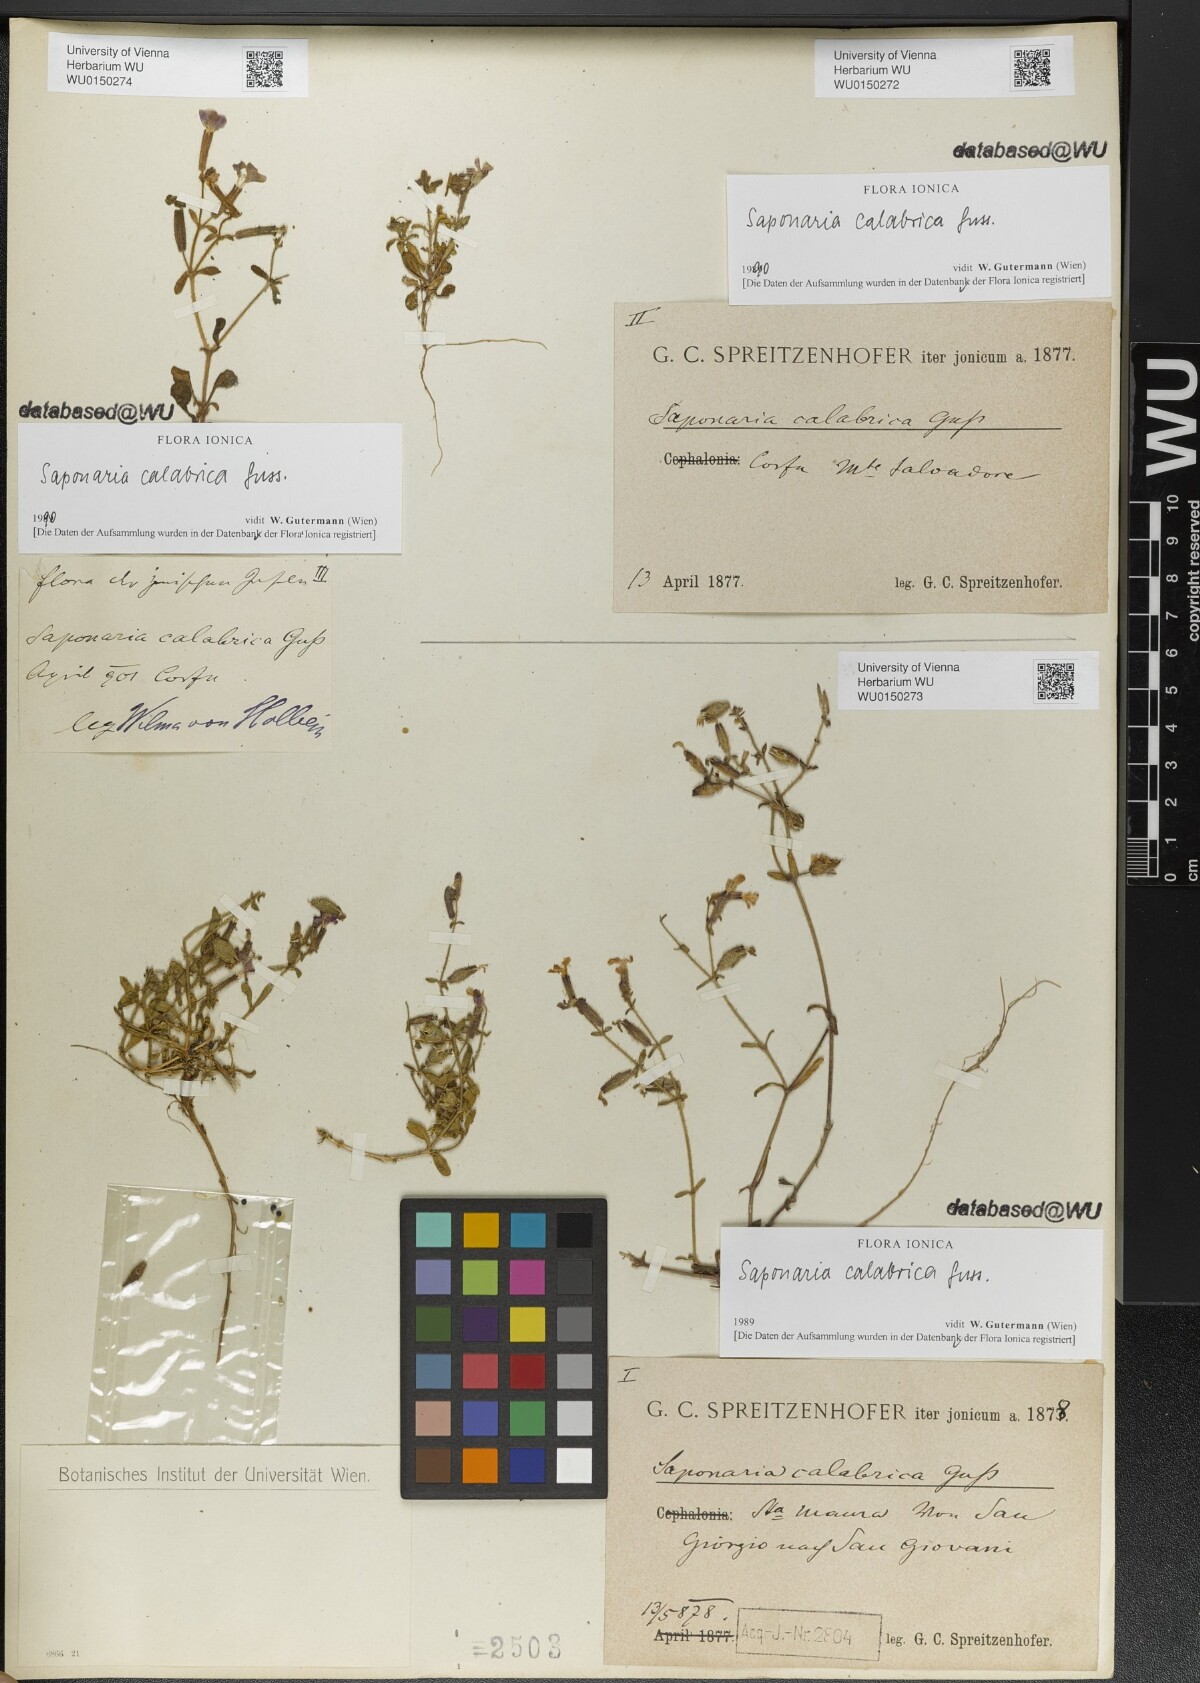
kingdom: Plantae
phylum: Tracheophyta
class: Magnoliopsida
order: Caryophyllales
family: Caryophyllaceae
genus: Saponaria
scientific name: Saponaria calabrica
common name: Adriatic soapwort
